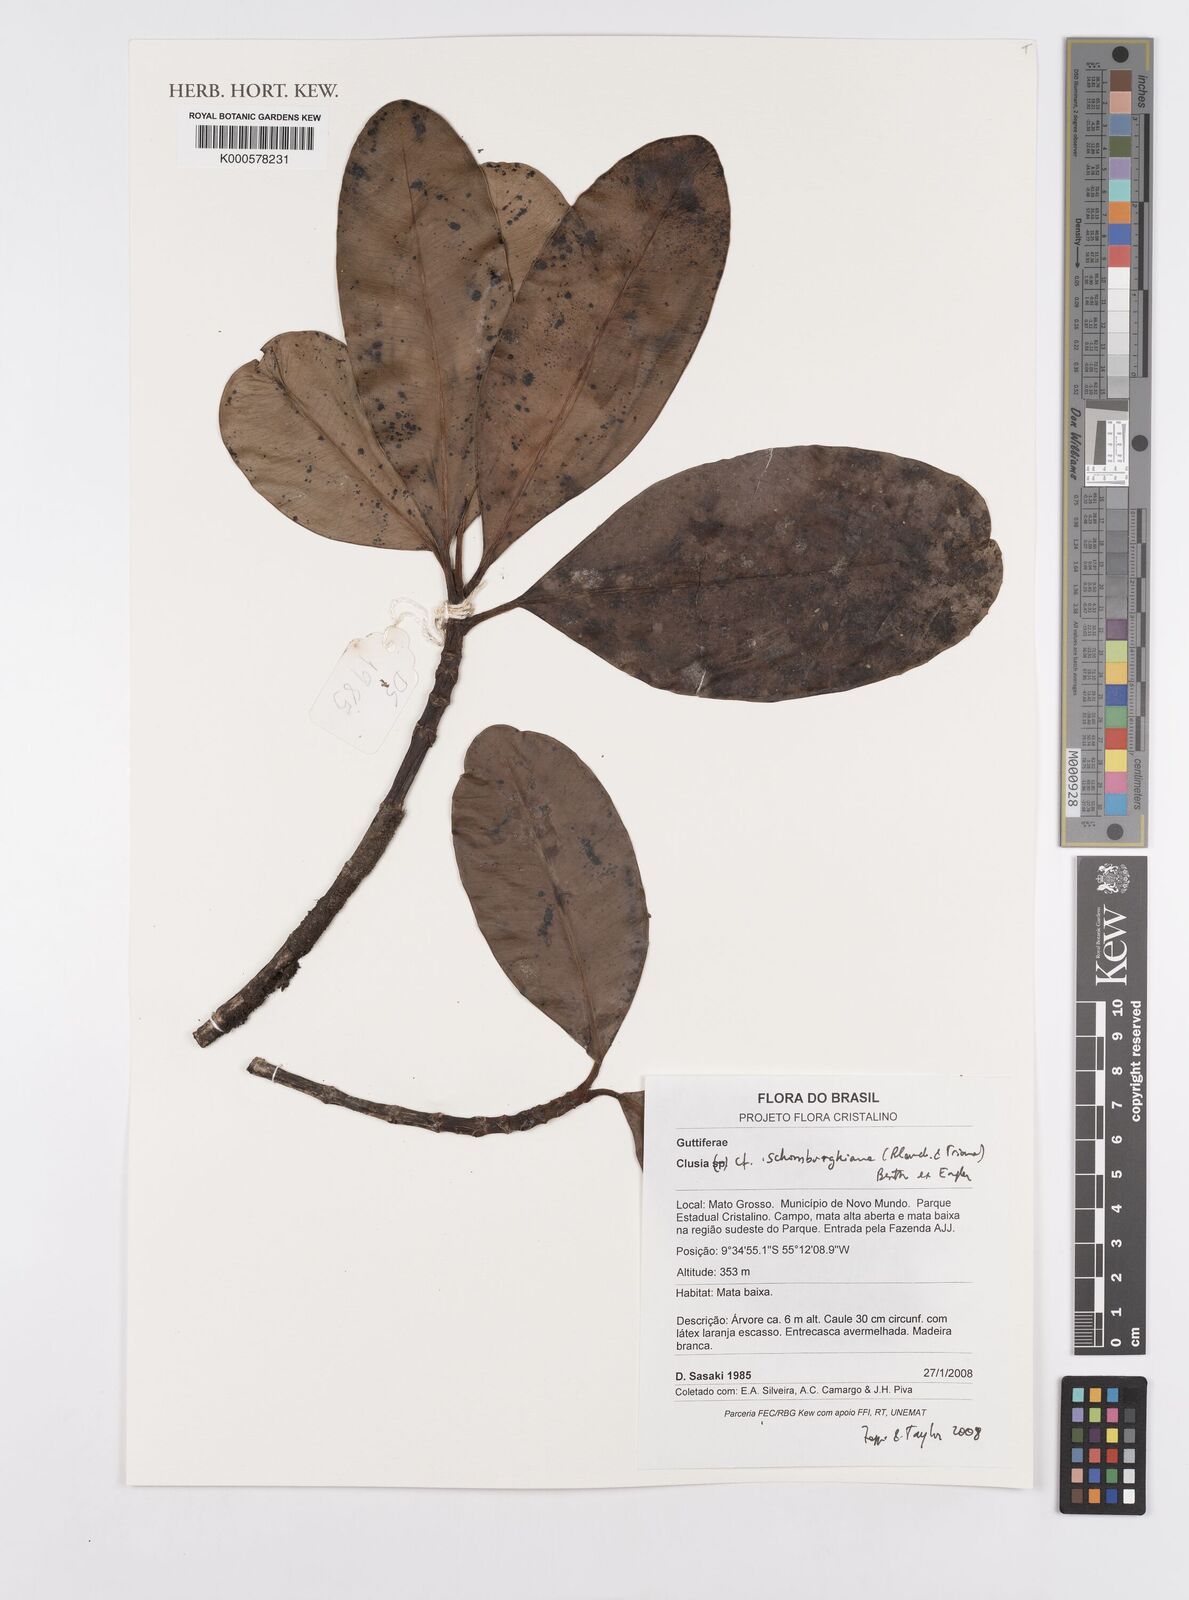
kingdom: Plantae
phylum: Tracheophyta
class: Magnoliopsida
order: Malpighiales
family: Clusiaceae
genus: Clusia
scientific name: Clusia schomburgkiana
